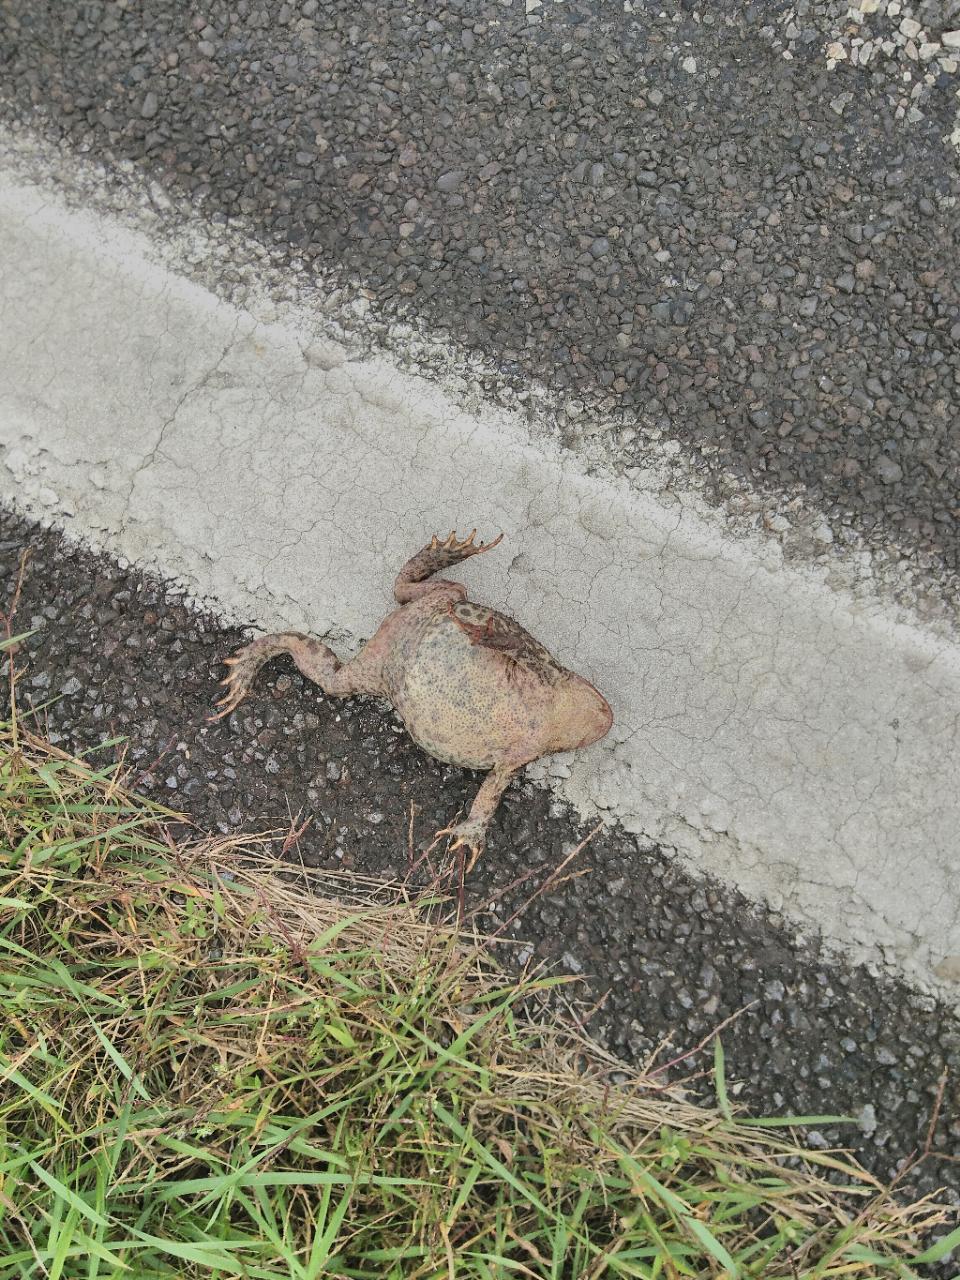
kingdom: Animalia
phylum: Chordata
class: Amphibia
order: Anura
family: Bufonidae
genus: Bufo
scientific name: Bufo bufo
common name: Common toad
